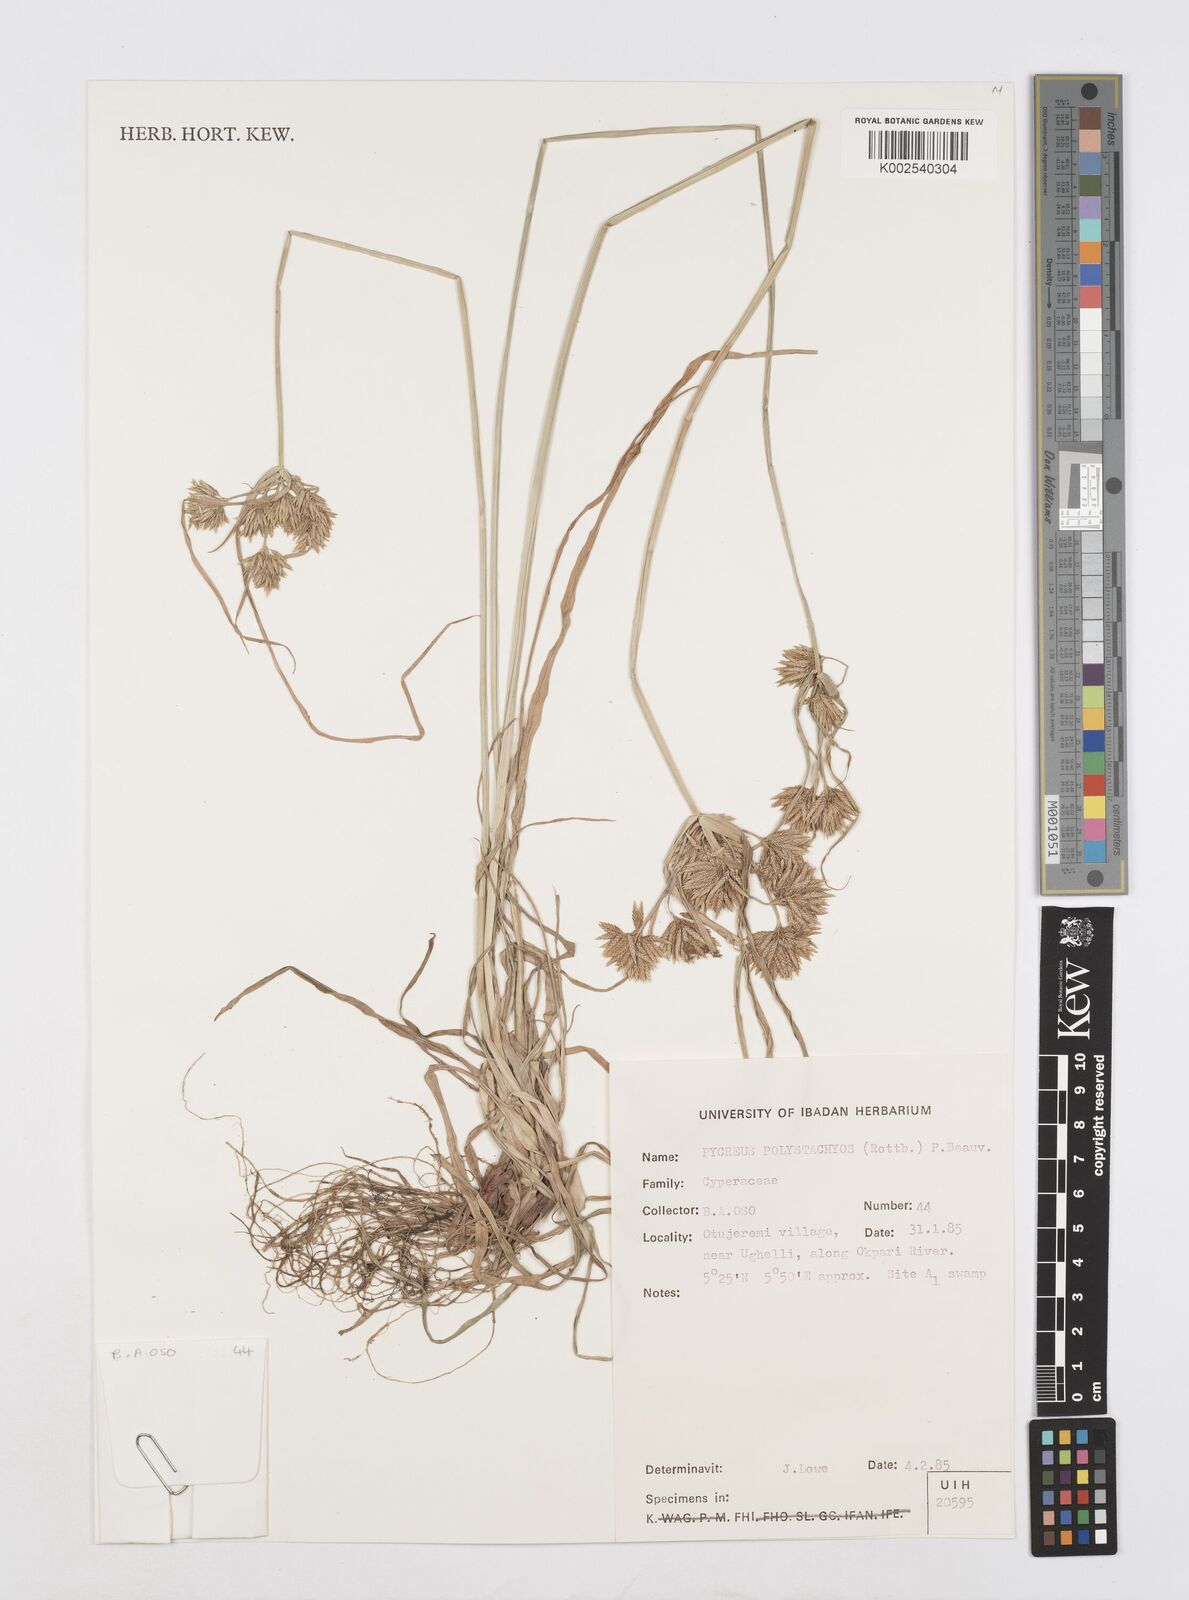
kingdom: Plantae
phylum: Tracheophyta
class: Liliopsida
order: Poales
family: Cyperaceae
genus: Cyperus
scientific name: Cyperus polystachyos
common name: Bunchy flat sedge
